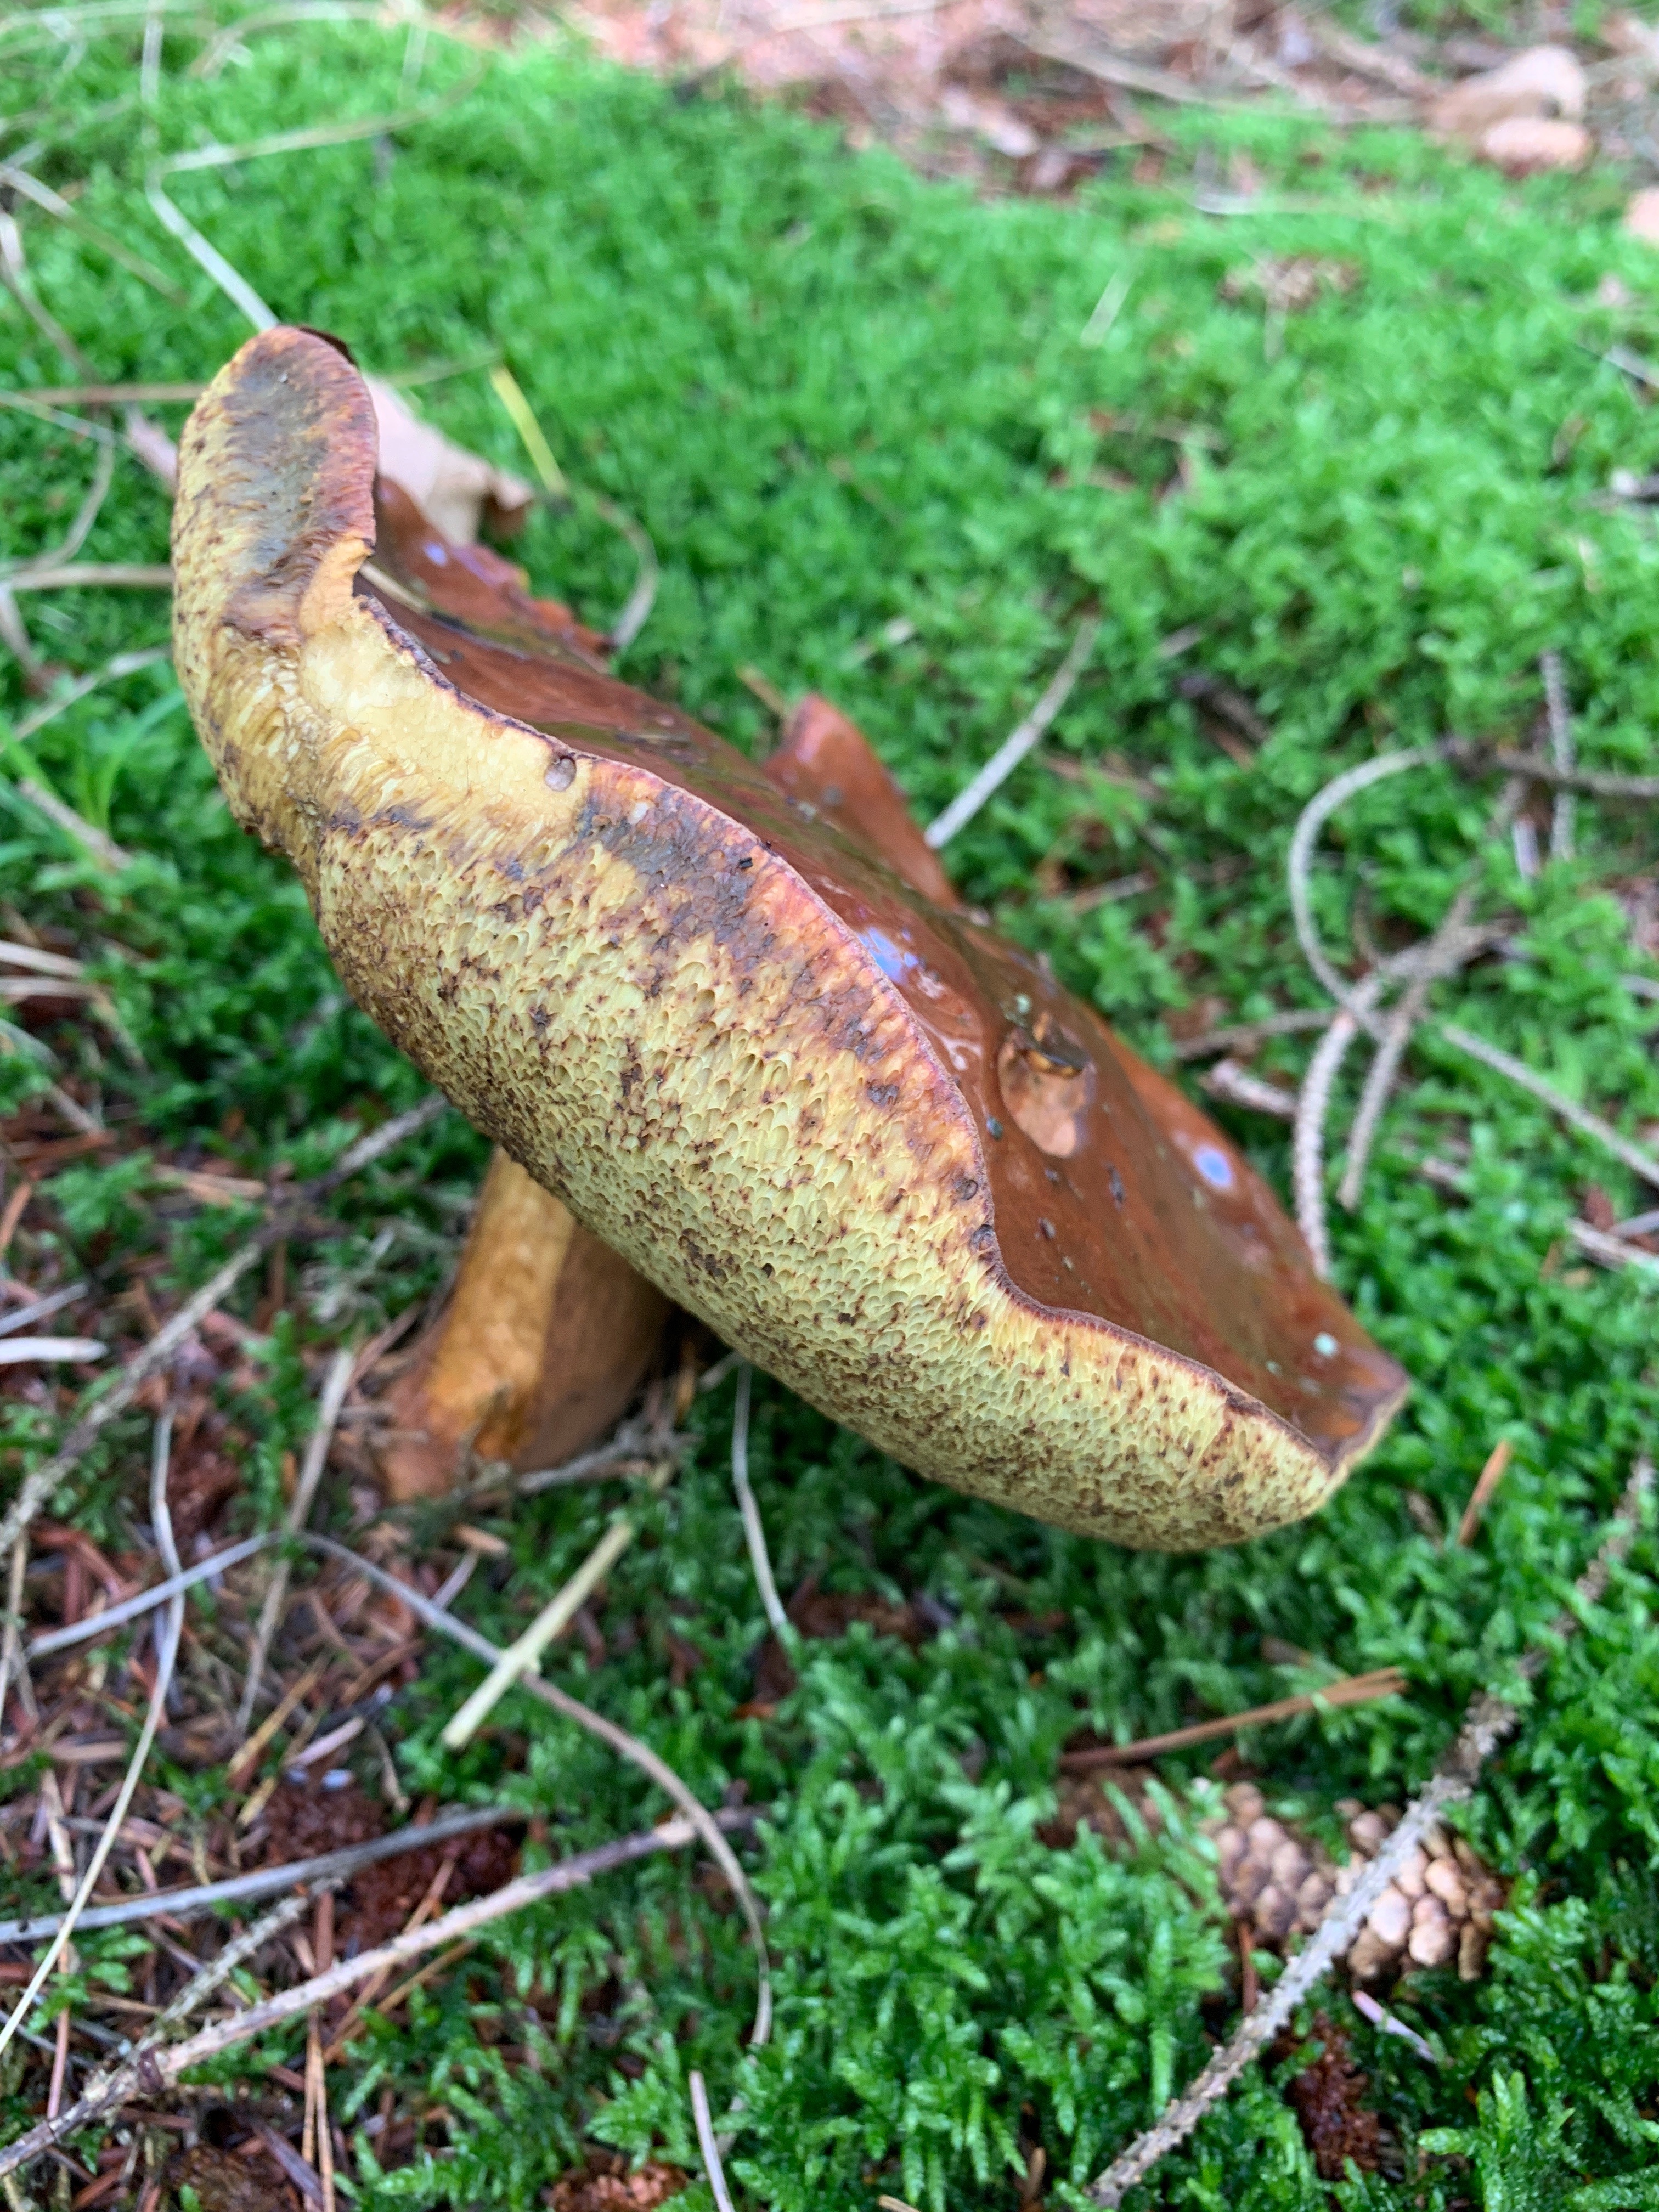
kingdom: Fungi
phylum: Basidiomycota
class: Agaricomycetes
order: Boletales
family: Boletaceae
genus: Imleria
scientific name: Imleria badia
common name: brunstokket rørhat
